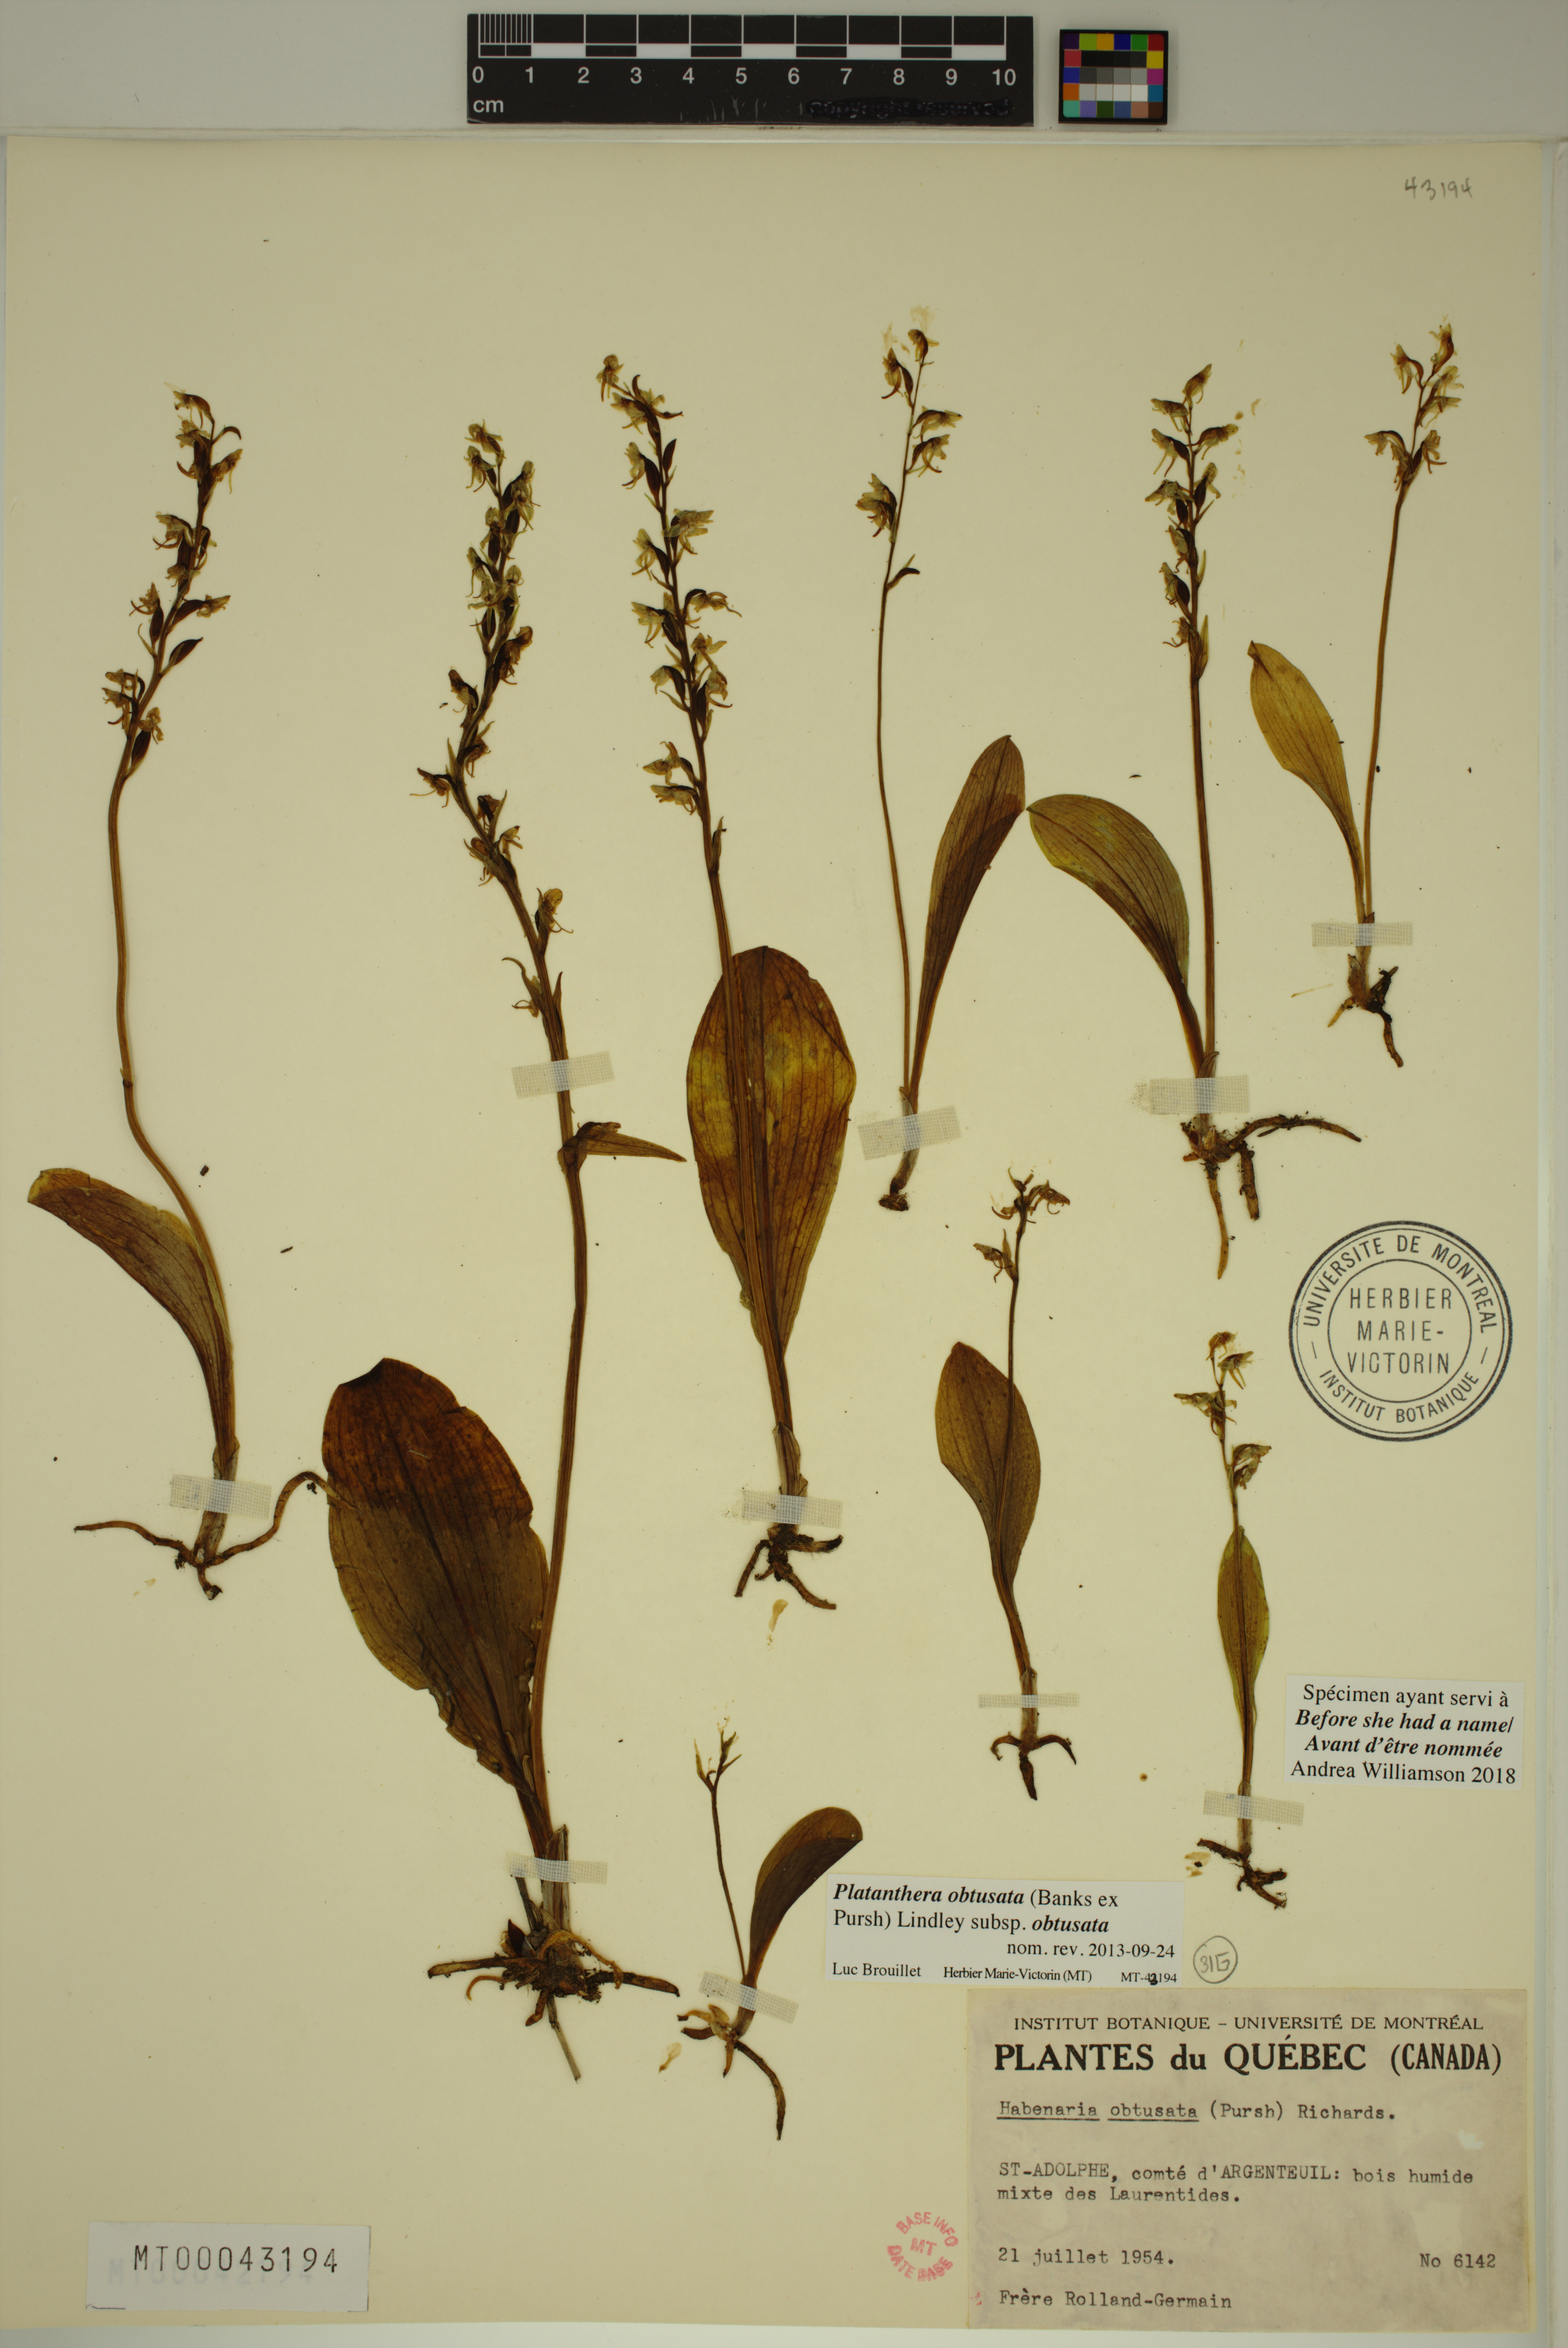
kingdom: Plantae
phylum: Tracheophyta
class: Liliopsida
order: Asparagales
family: Orchidaceae
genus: Platanthera
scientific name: Platanthera obtusata
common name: Blunt bog orchid
